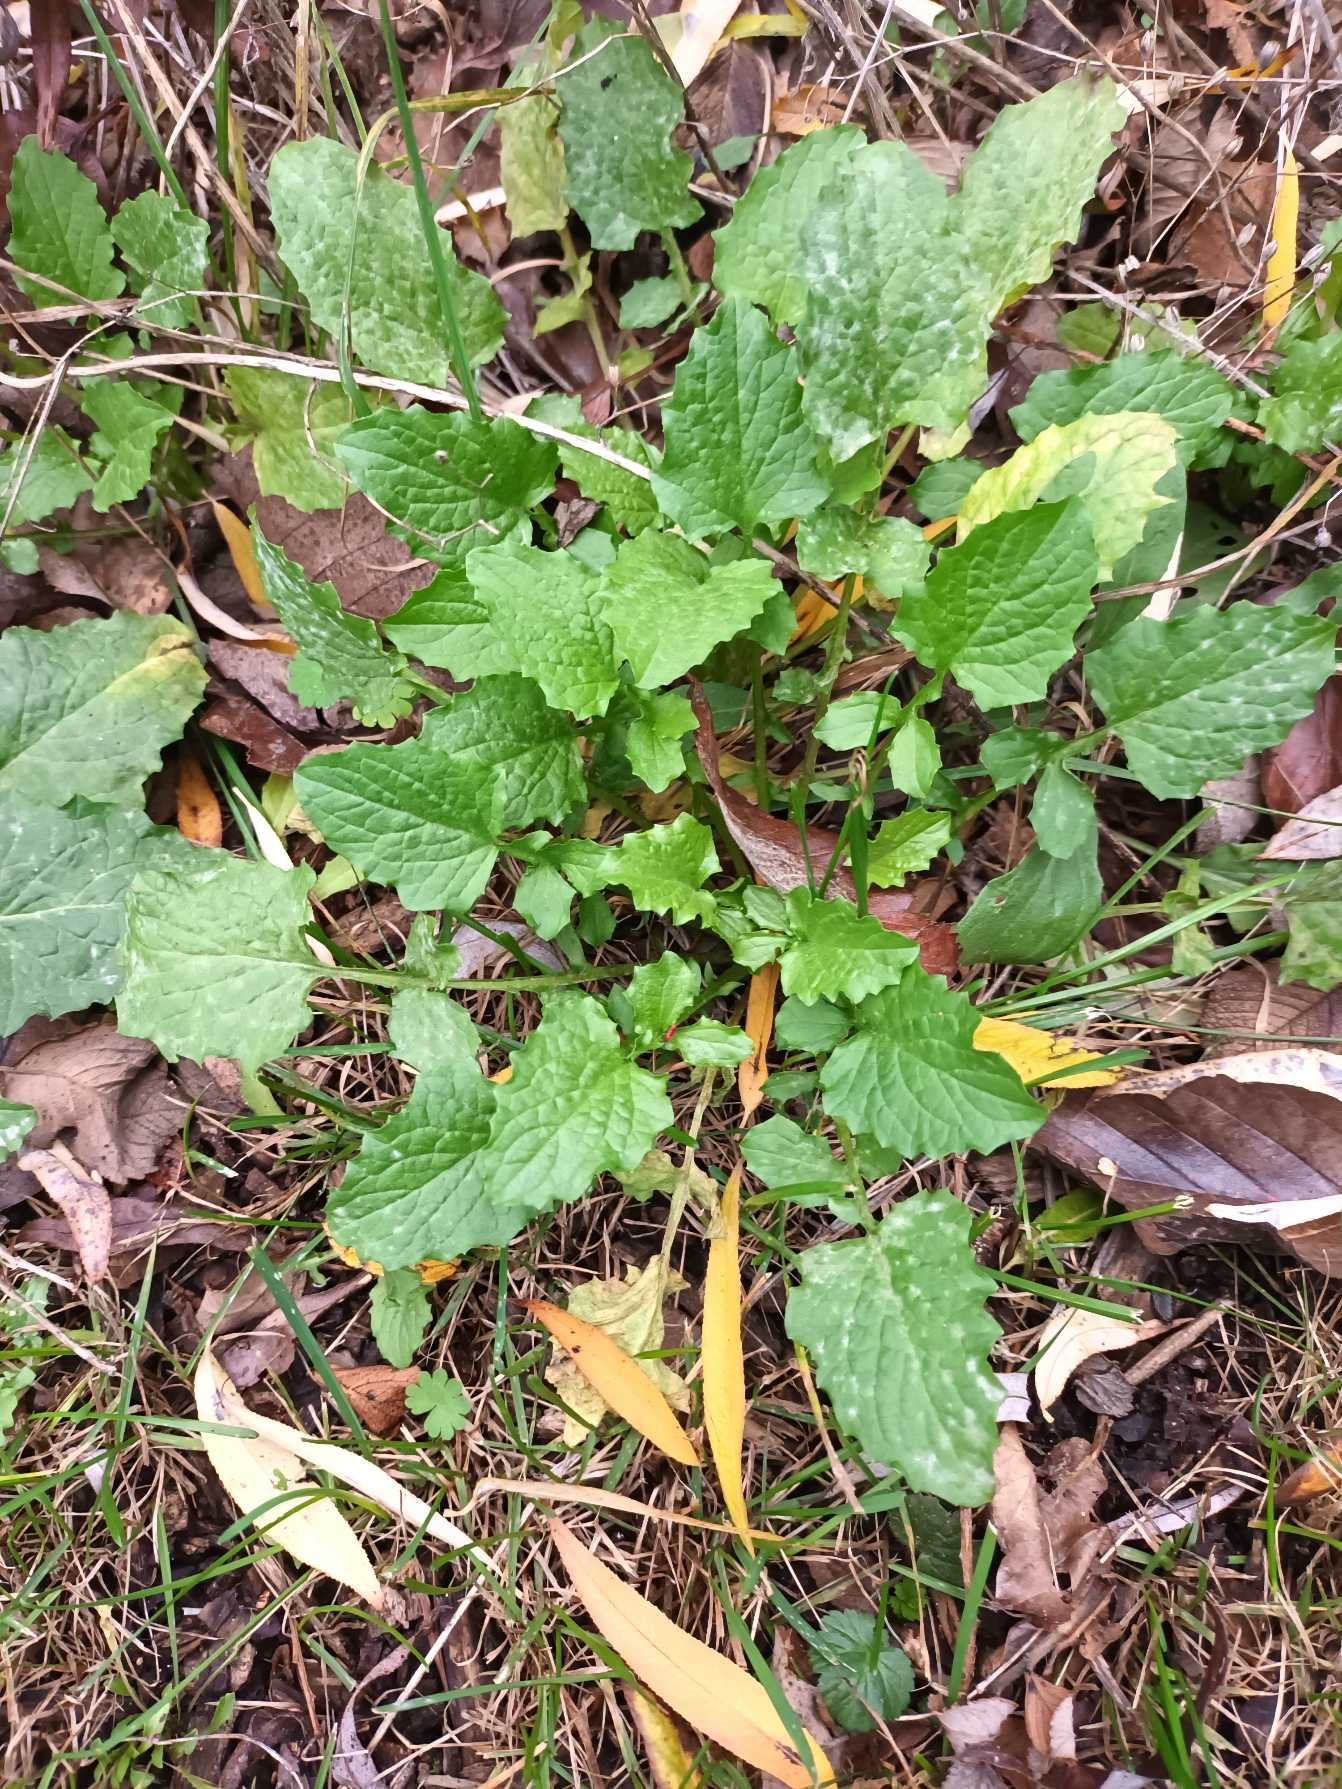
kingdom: Plantae
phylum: Tracheophyta
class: Magnoliopsida
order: Asterales
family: Asteraceae
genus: Lapsana
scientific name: Lapsana communis
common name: Haremad
